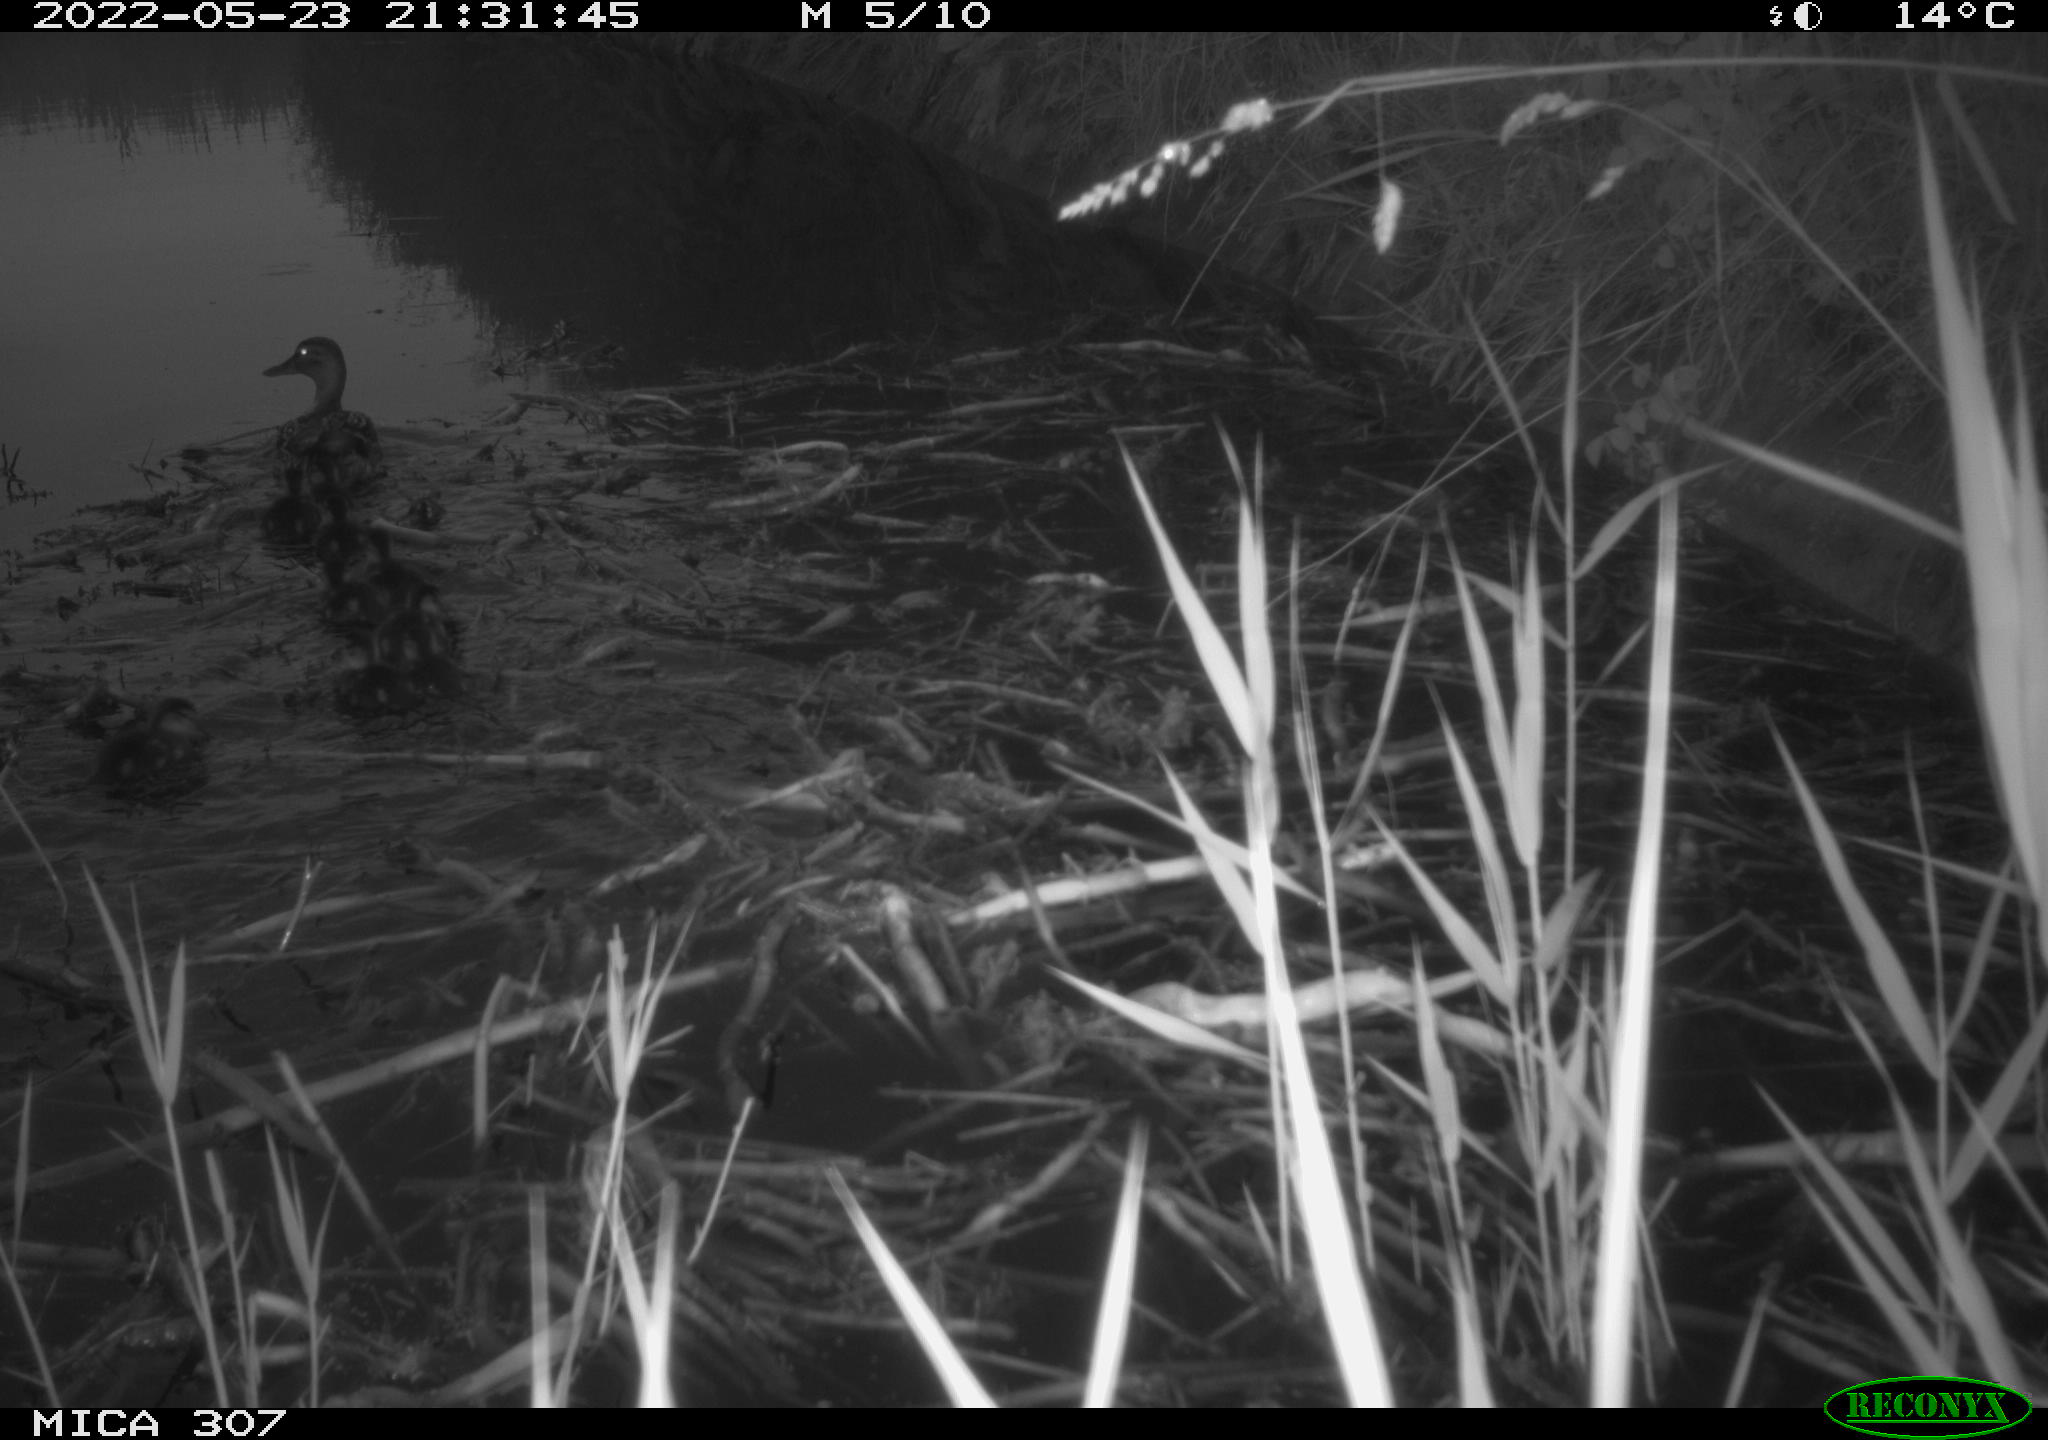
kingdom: Animalia
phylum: Chordata
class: Aves
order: Anseriformes
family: Anatidae
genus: Anas
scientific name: Anas platyrhynchos
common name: Mallard
